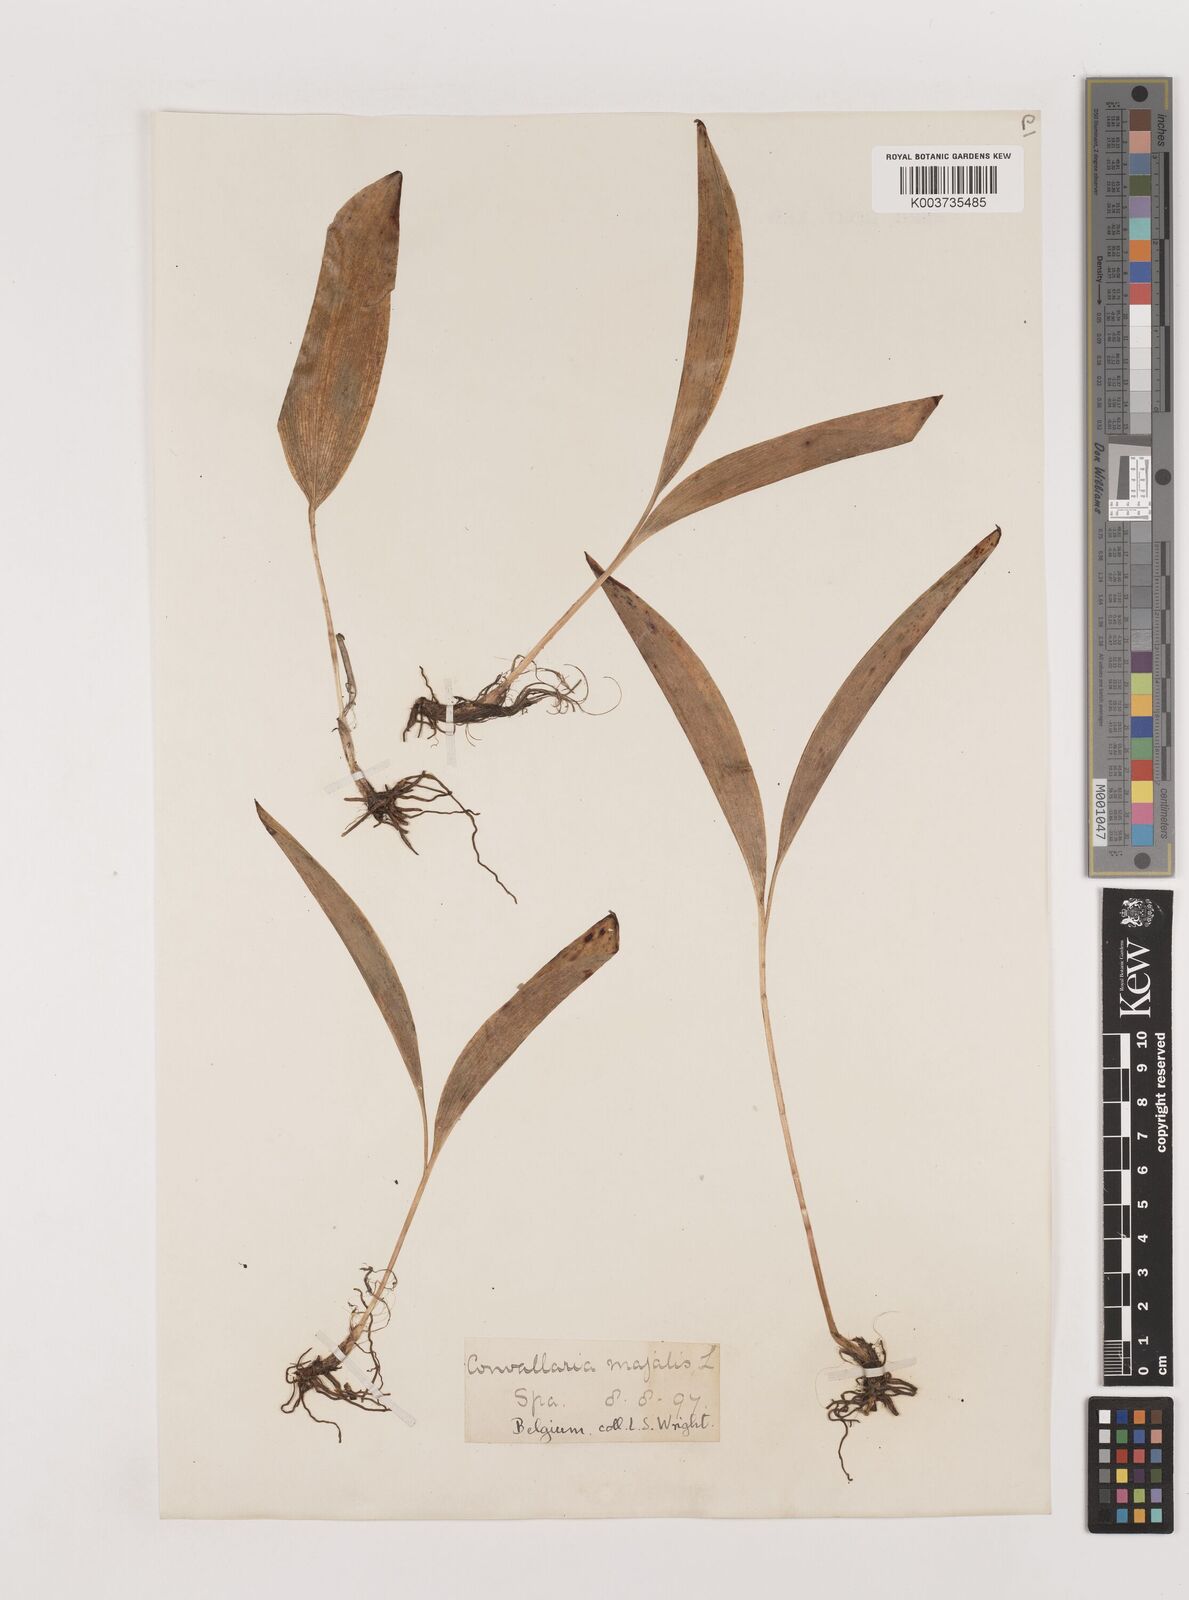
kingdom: Plantae
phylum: Tracheophyta
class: Liliopsida
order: Asparagales
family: Asparagaceae
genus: Convallaria
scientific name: Convallaria majalis
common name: Lily-of-the-valley
